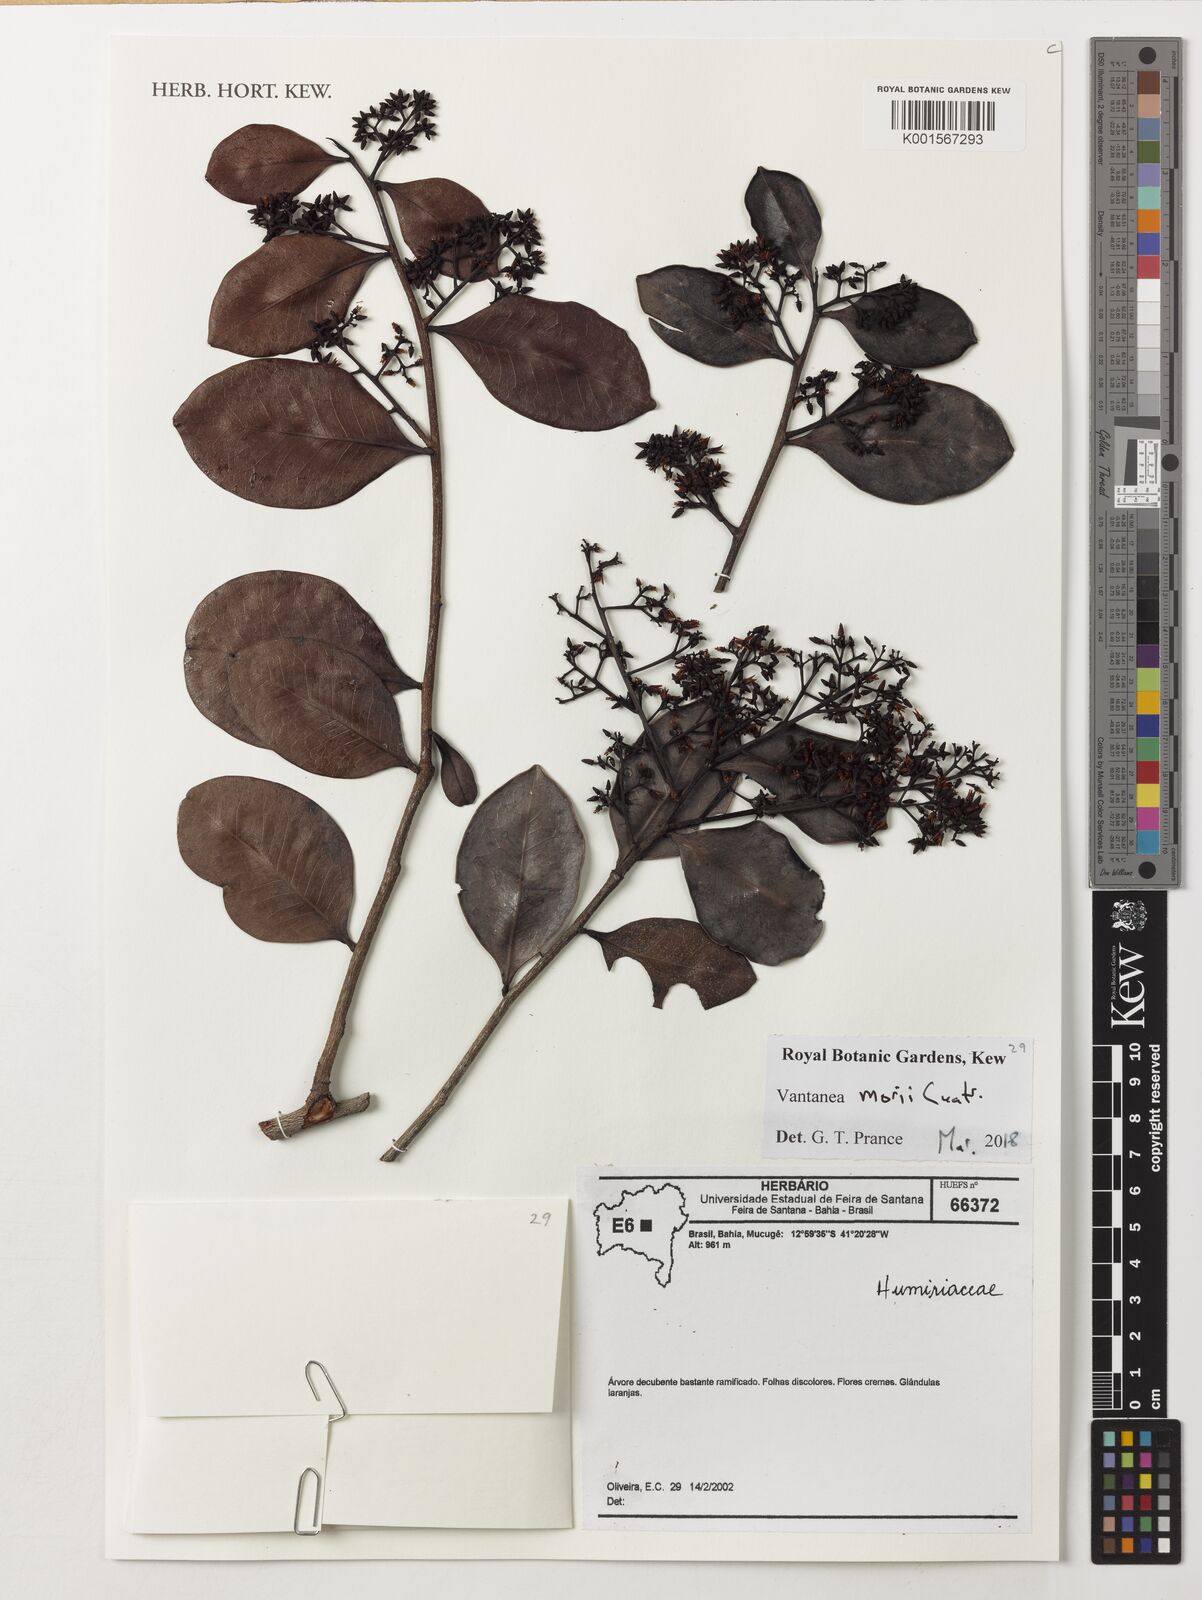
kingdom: Plantae
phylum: Tracheophyta
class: Magnoliopsida
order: Malpighiales
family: Humiriaceae
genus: Vantanea
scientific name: Vantanea morii
